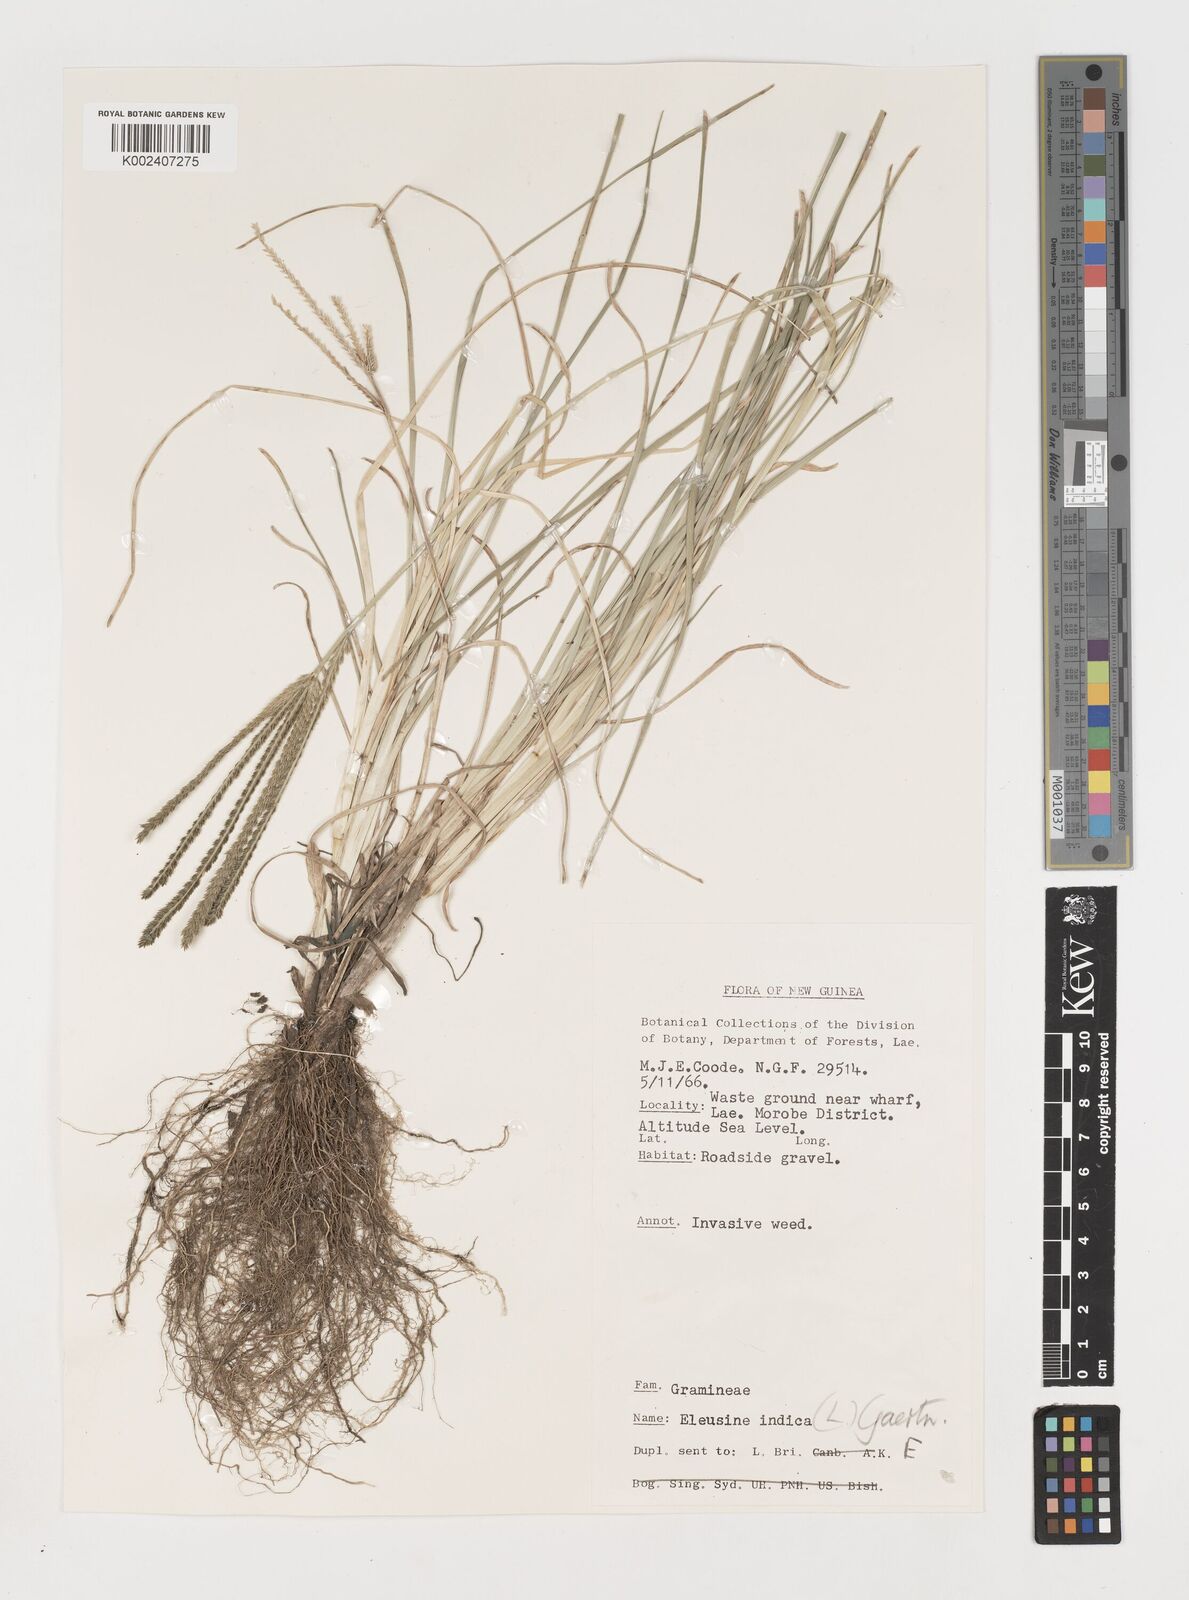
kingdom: Plantae
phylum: Tracheophyta
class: Liliopsida
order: Poales
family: Poaceae
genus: Eleusine
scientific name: Eleusine indica
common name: Yard-grass
